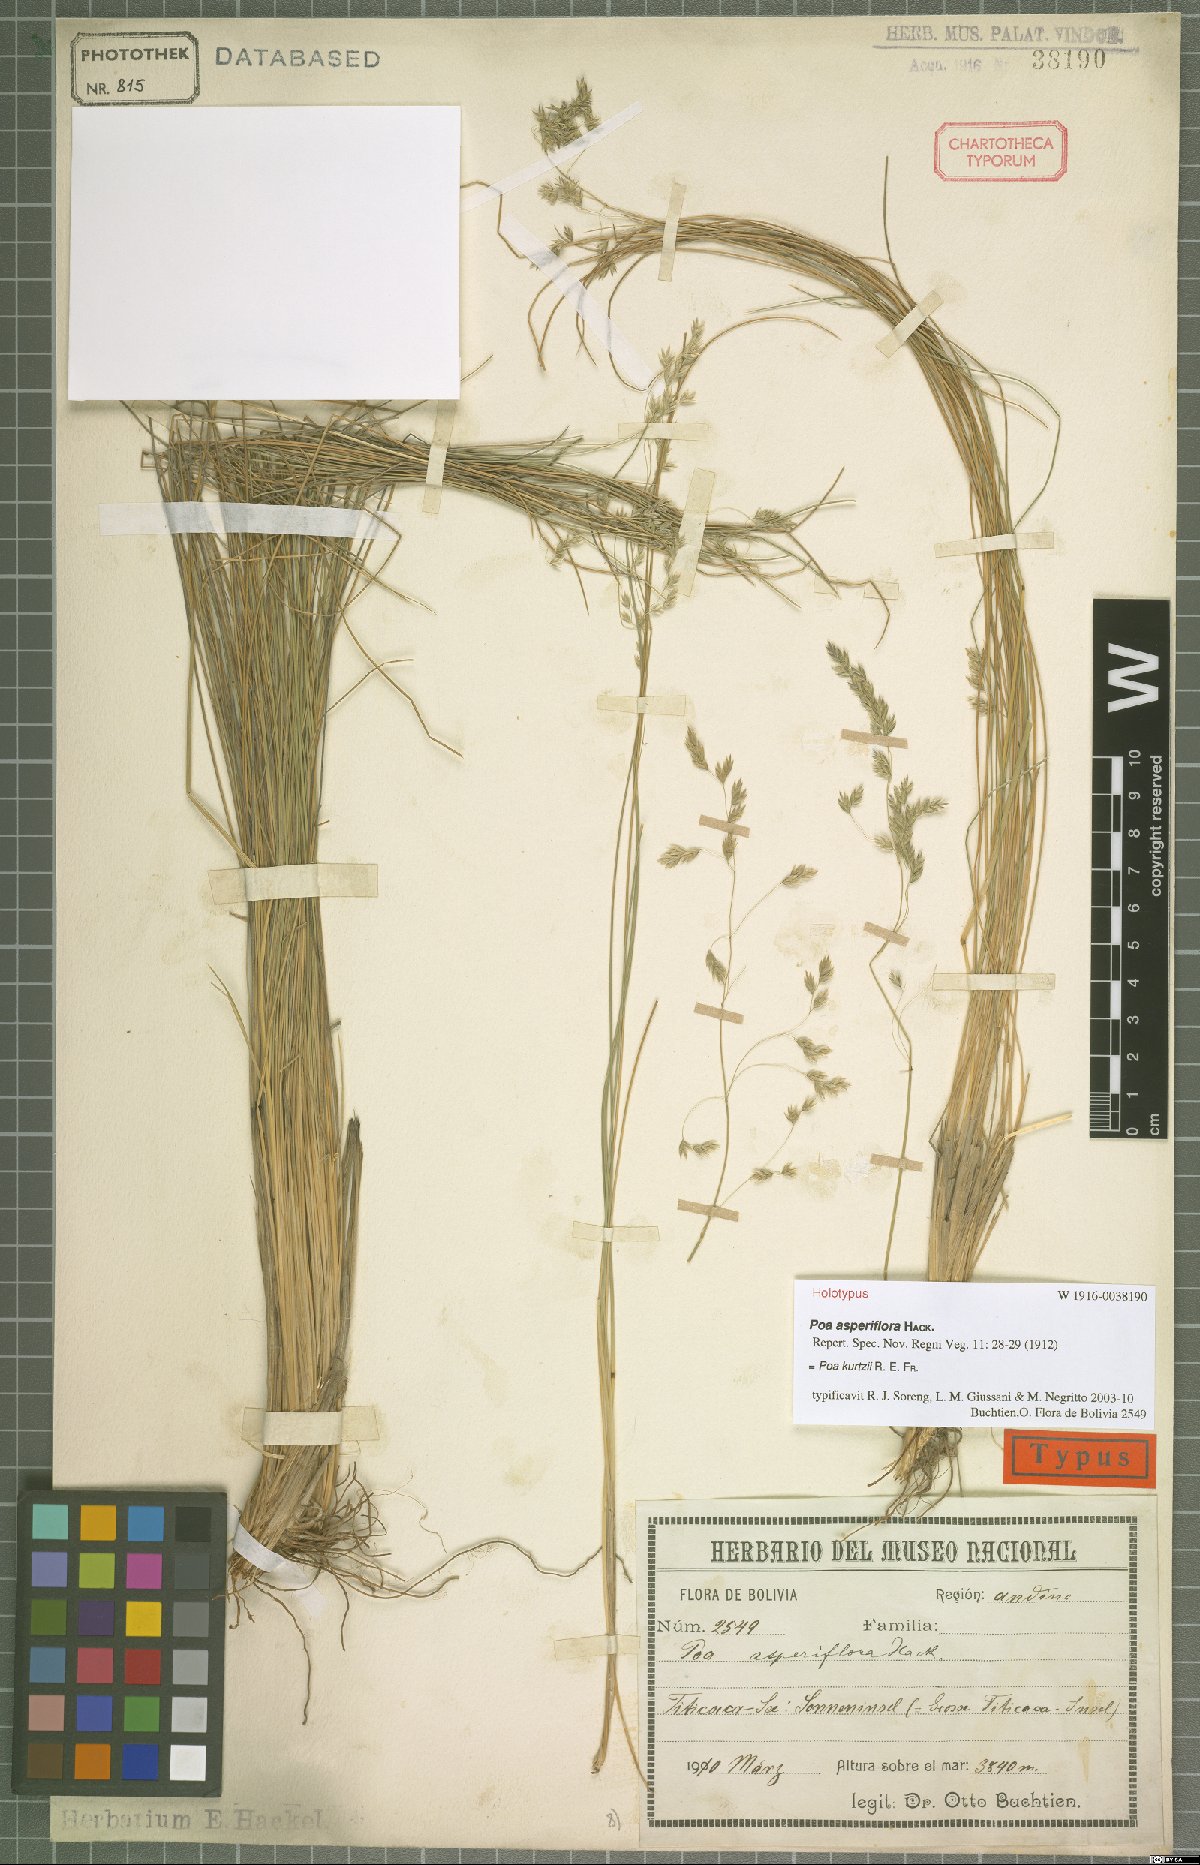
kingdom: Plantae
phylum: Tracheophyta
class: Liliopsida
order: Poales
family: Poaceae
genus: Poa
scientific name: Poa kurtzii
